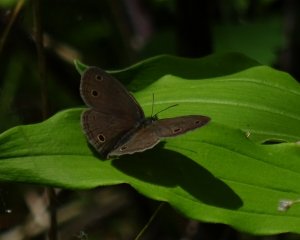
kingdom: Animalia
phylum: Arthropoda
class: Insecta
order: Lepidoptera
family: Nymphalidae
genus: Euptychia
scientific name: Euptychia cymela
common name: Little Wood Satyr
